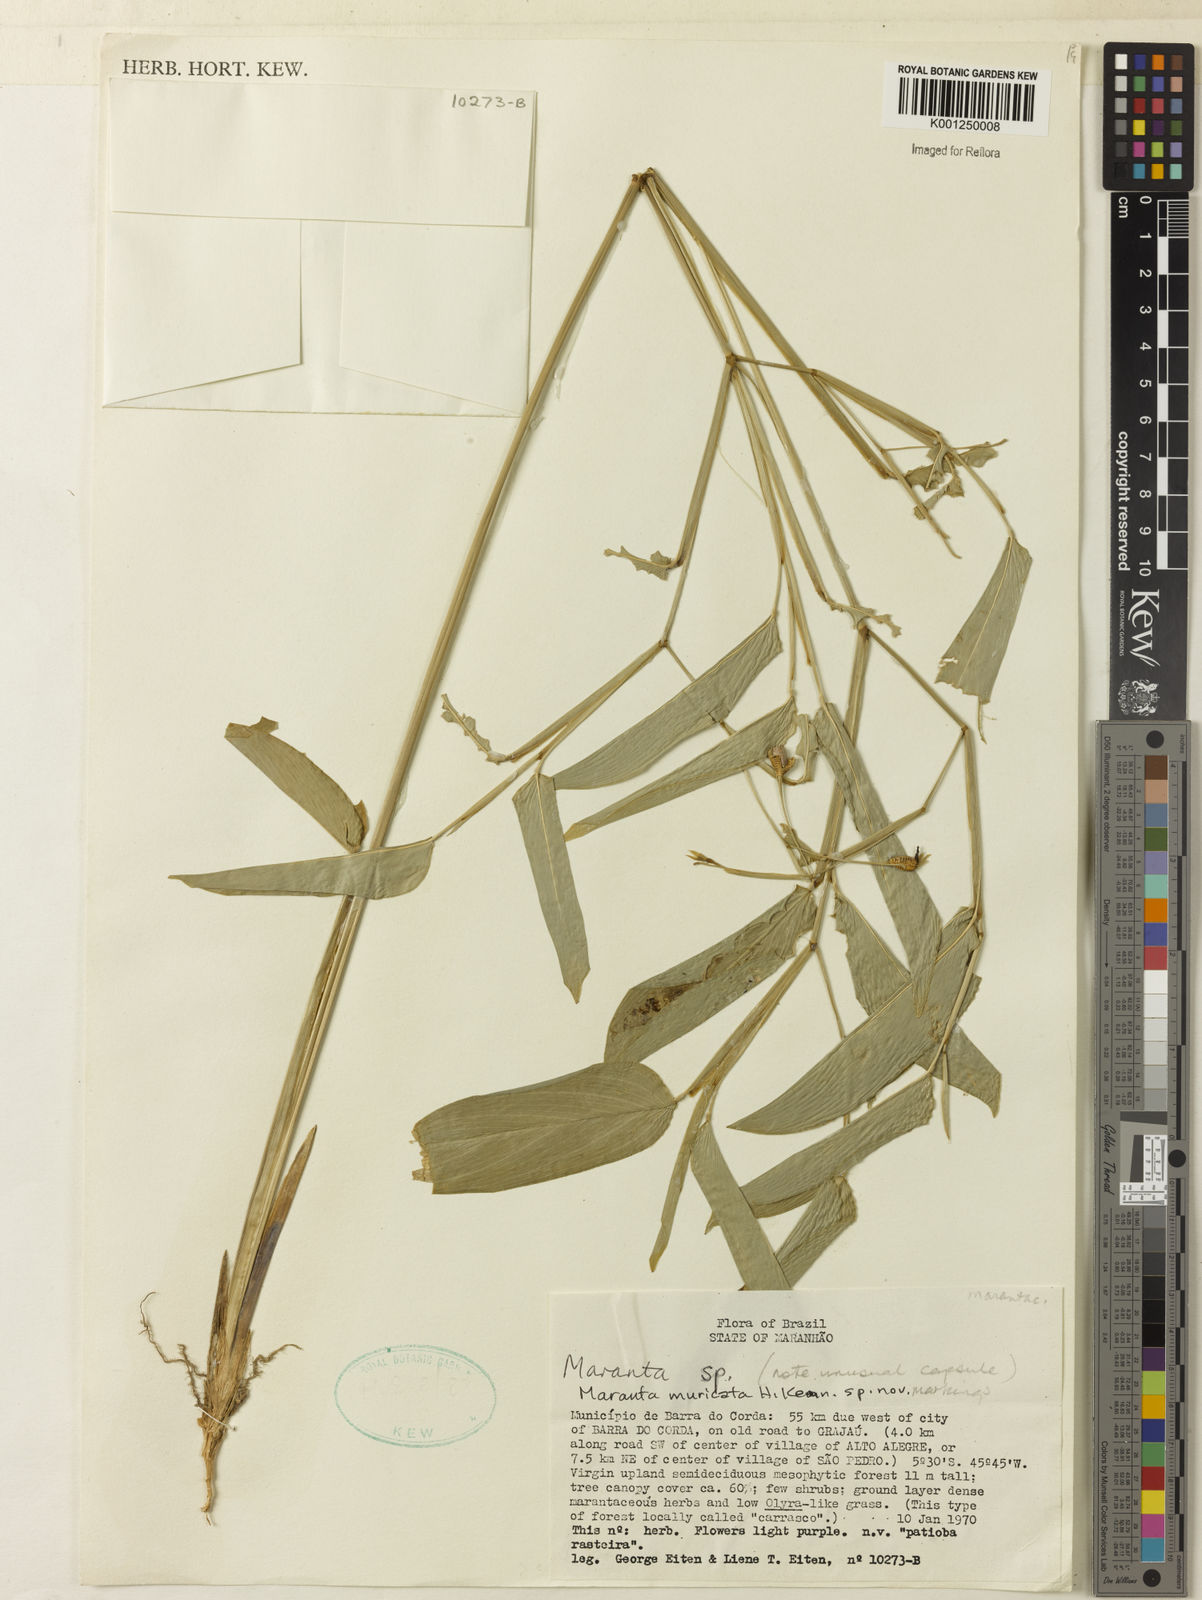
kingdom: Plantae
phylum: Tracheophyta
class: Liliopsida
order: Zingiberales
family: Marantaceae
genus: Maranta
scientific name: Maranta
